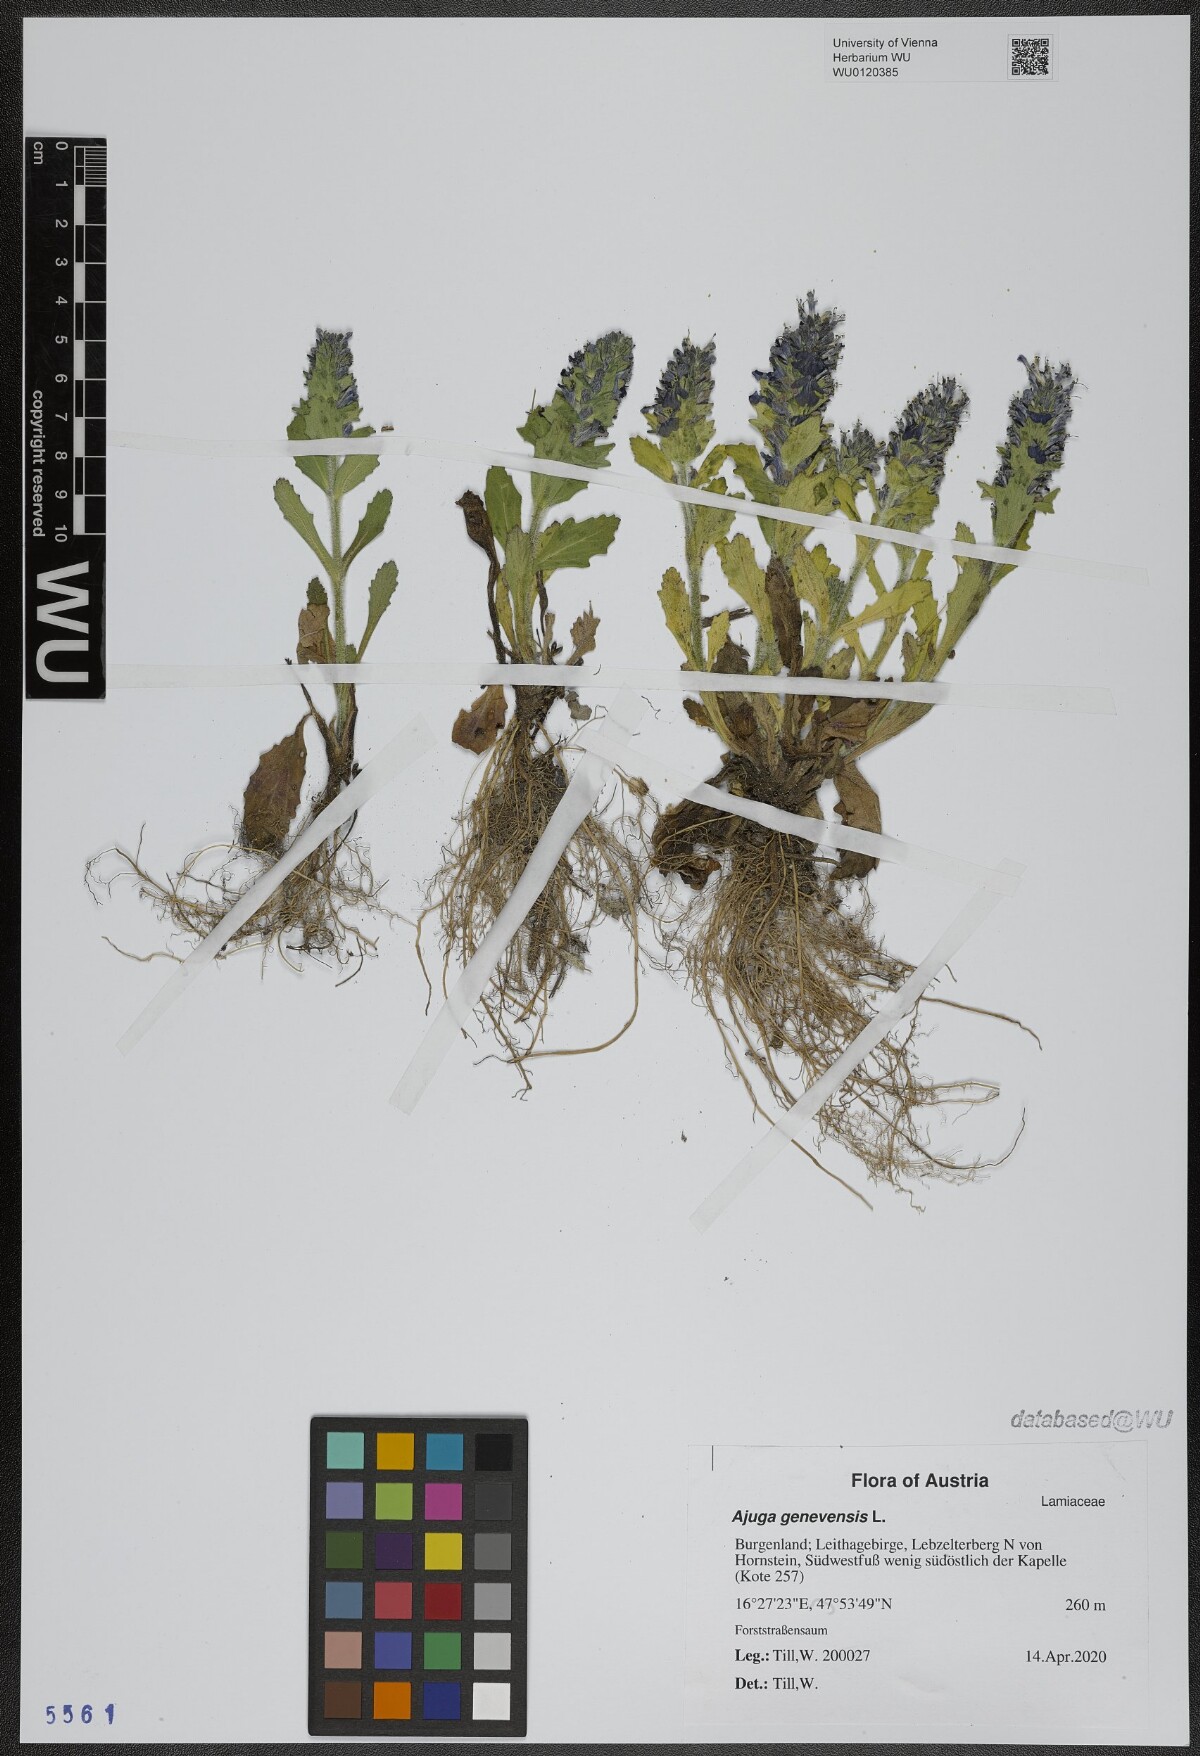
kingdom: Plantae
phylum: Tracheophyta
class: Magnoliopsida
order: Lamiales
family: Lamiaceae
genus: Ajuga
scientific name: Ajuga genevensis
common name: Blue bugle
